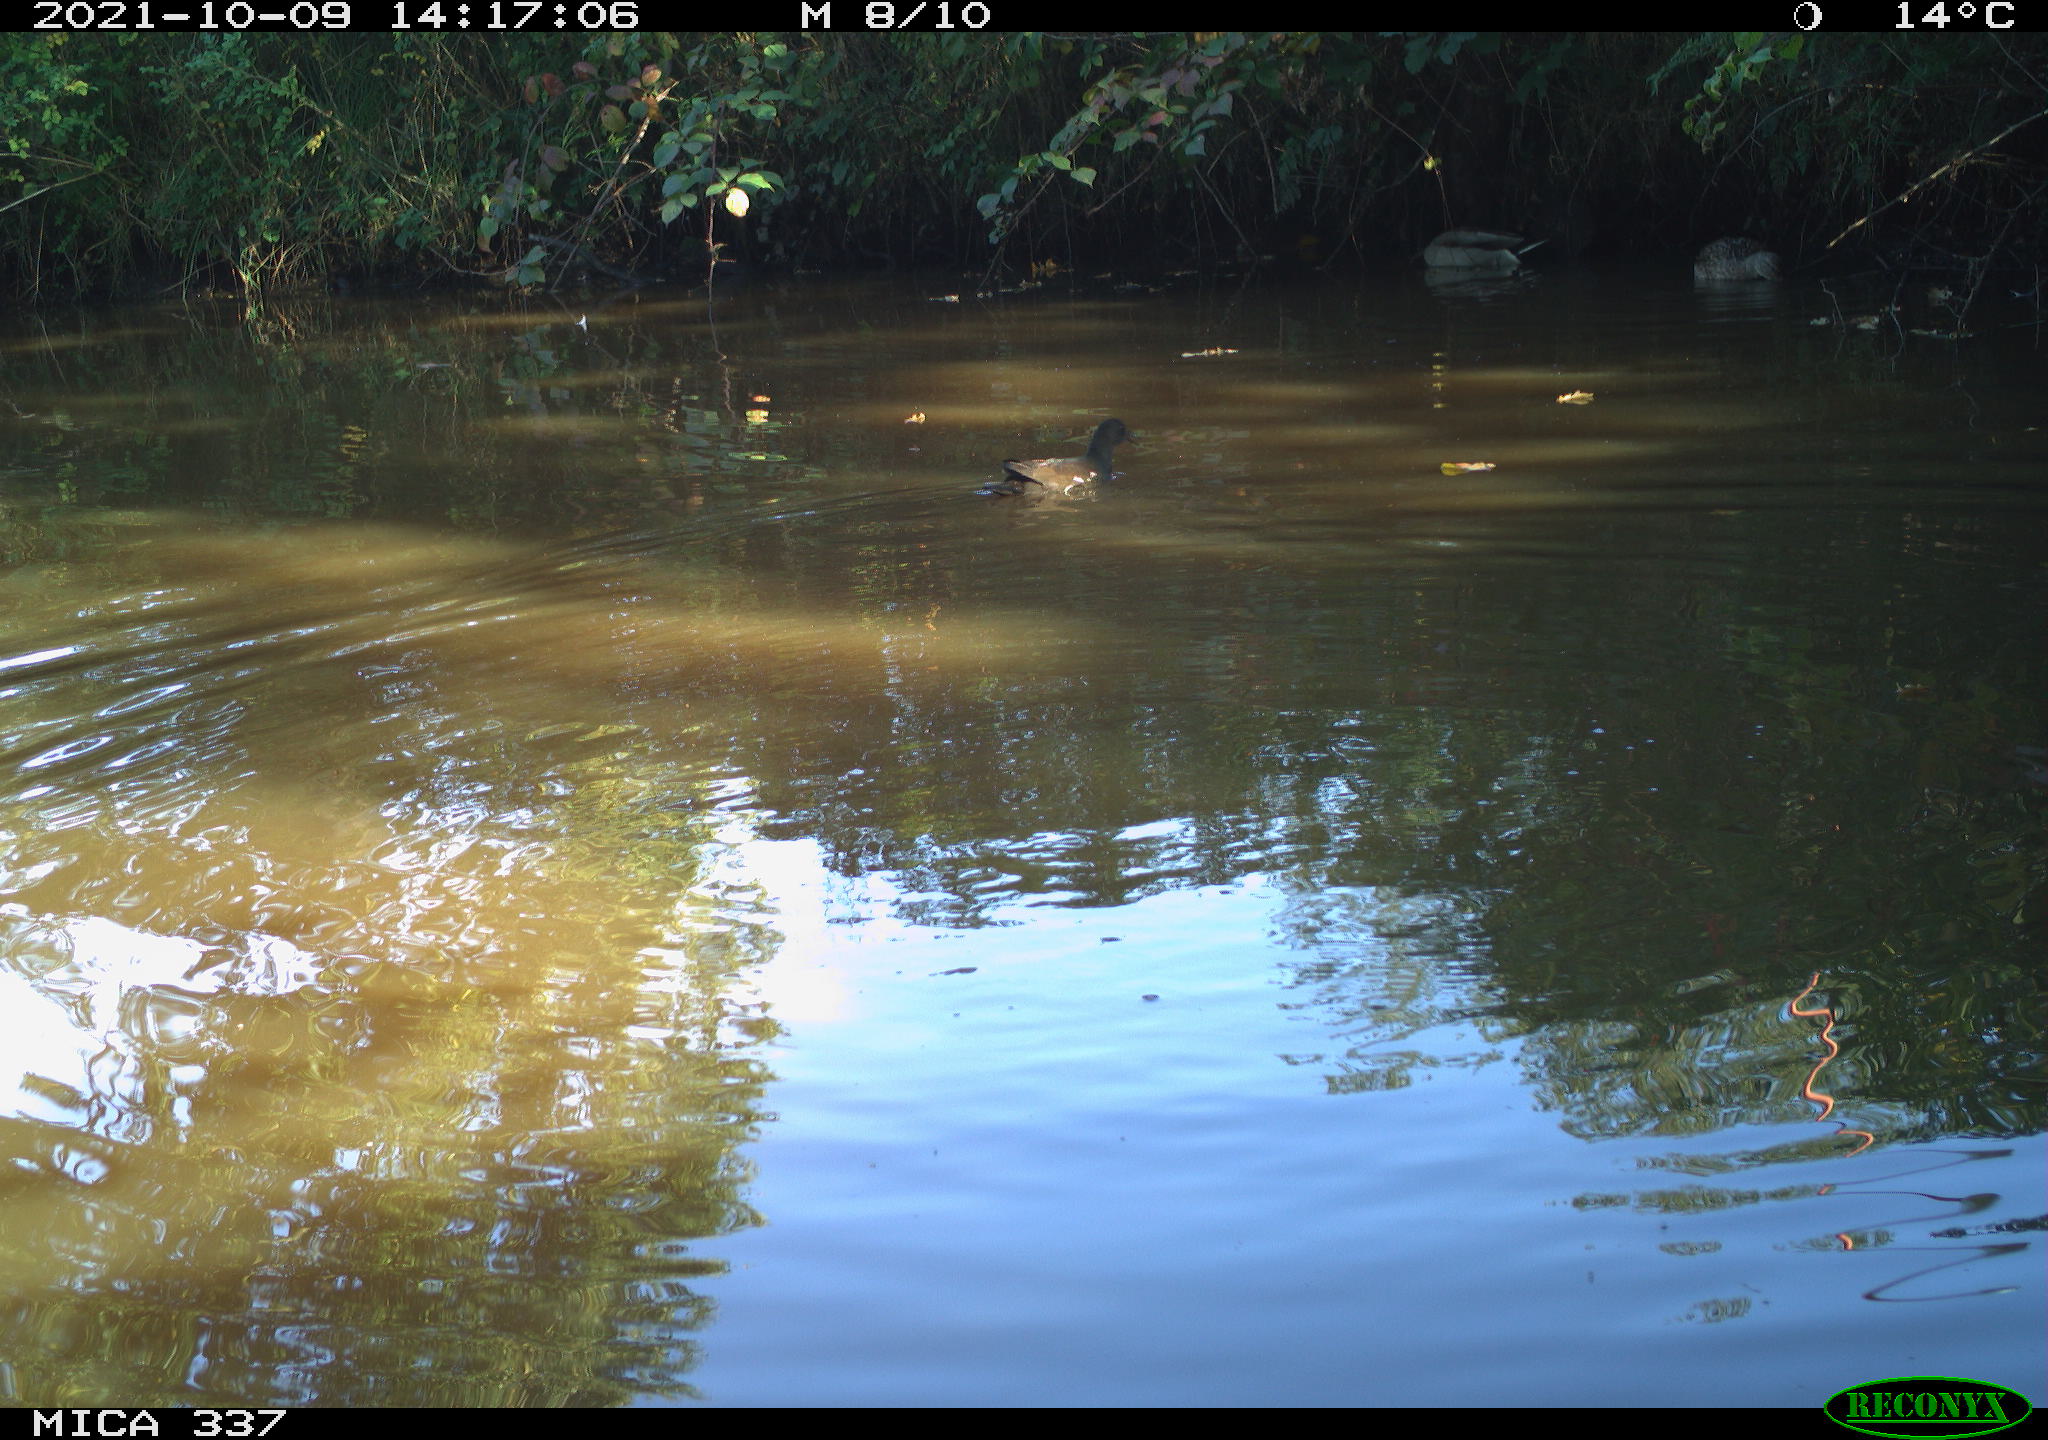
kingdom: Animalia
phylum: Chordata
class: Aves
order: Anseriformes
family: Anatidae
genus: Anas
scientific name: Anas platyrhynchos
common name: Mallard
